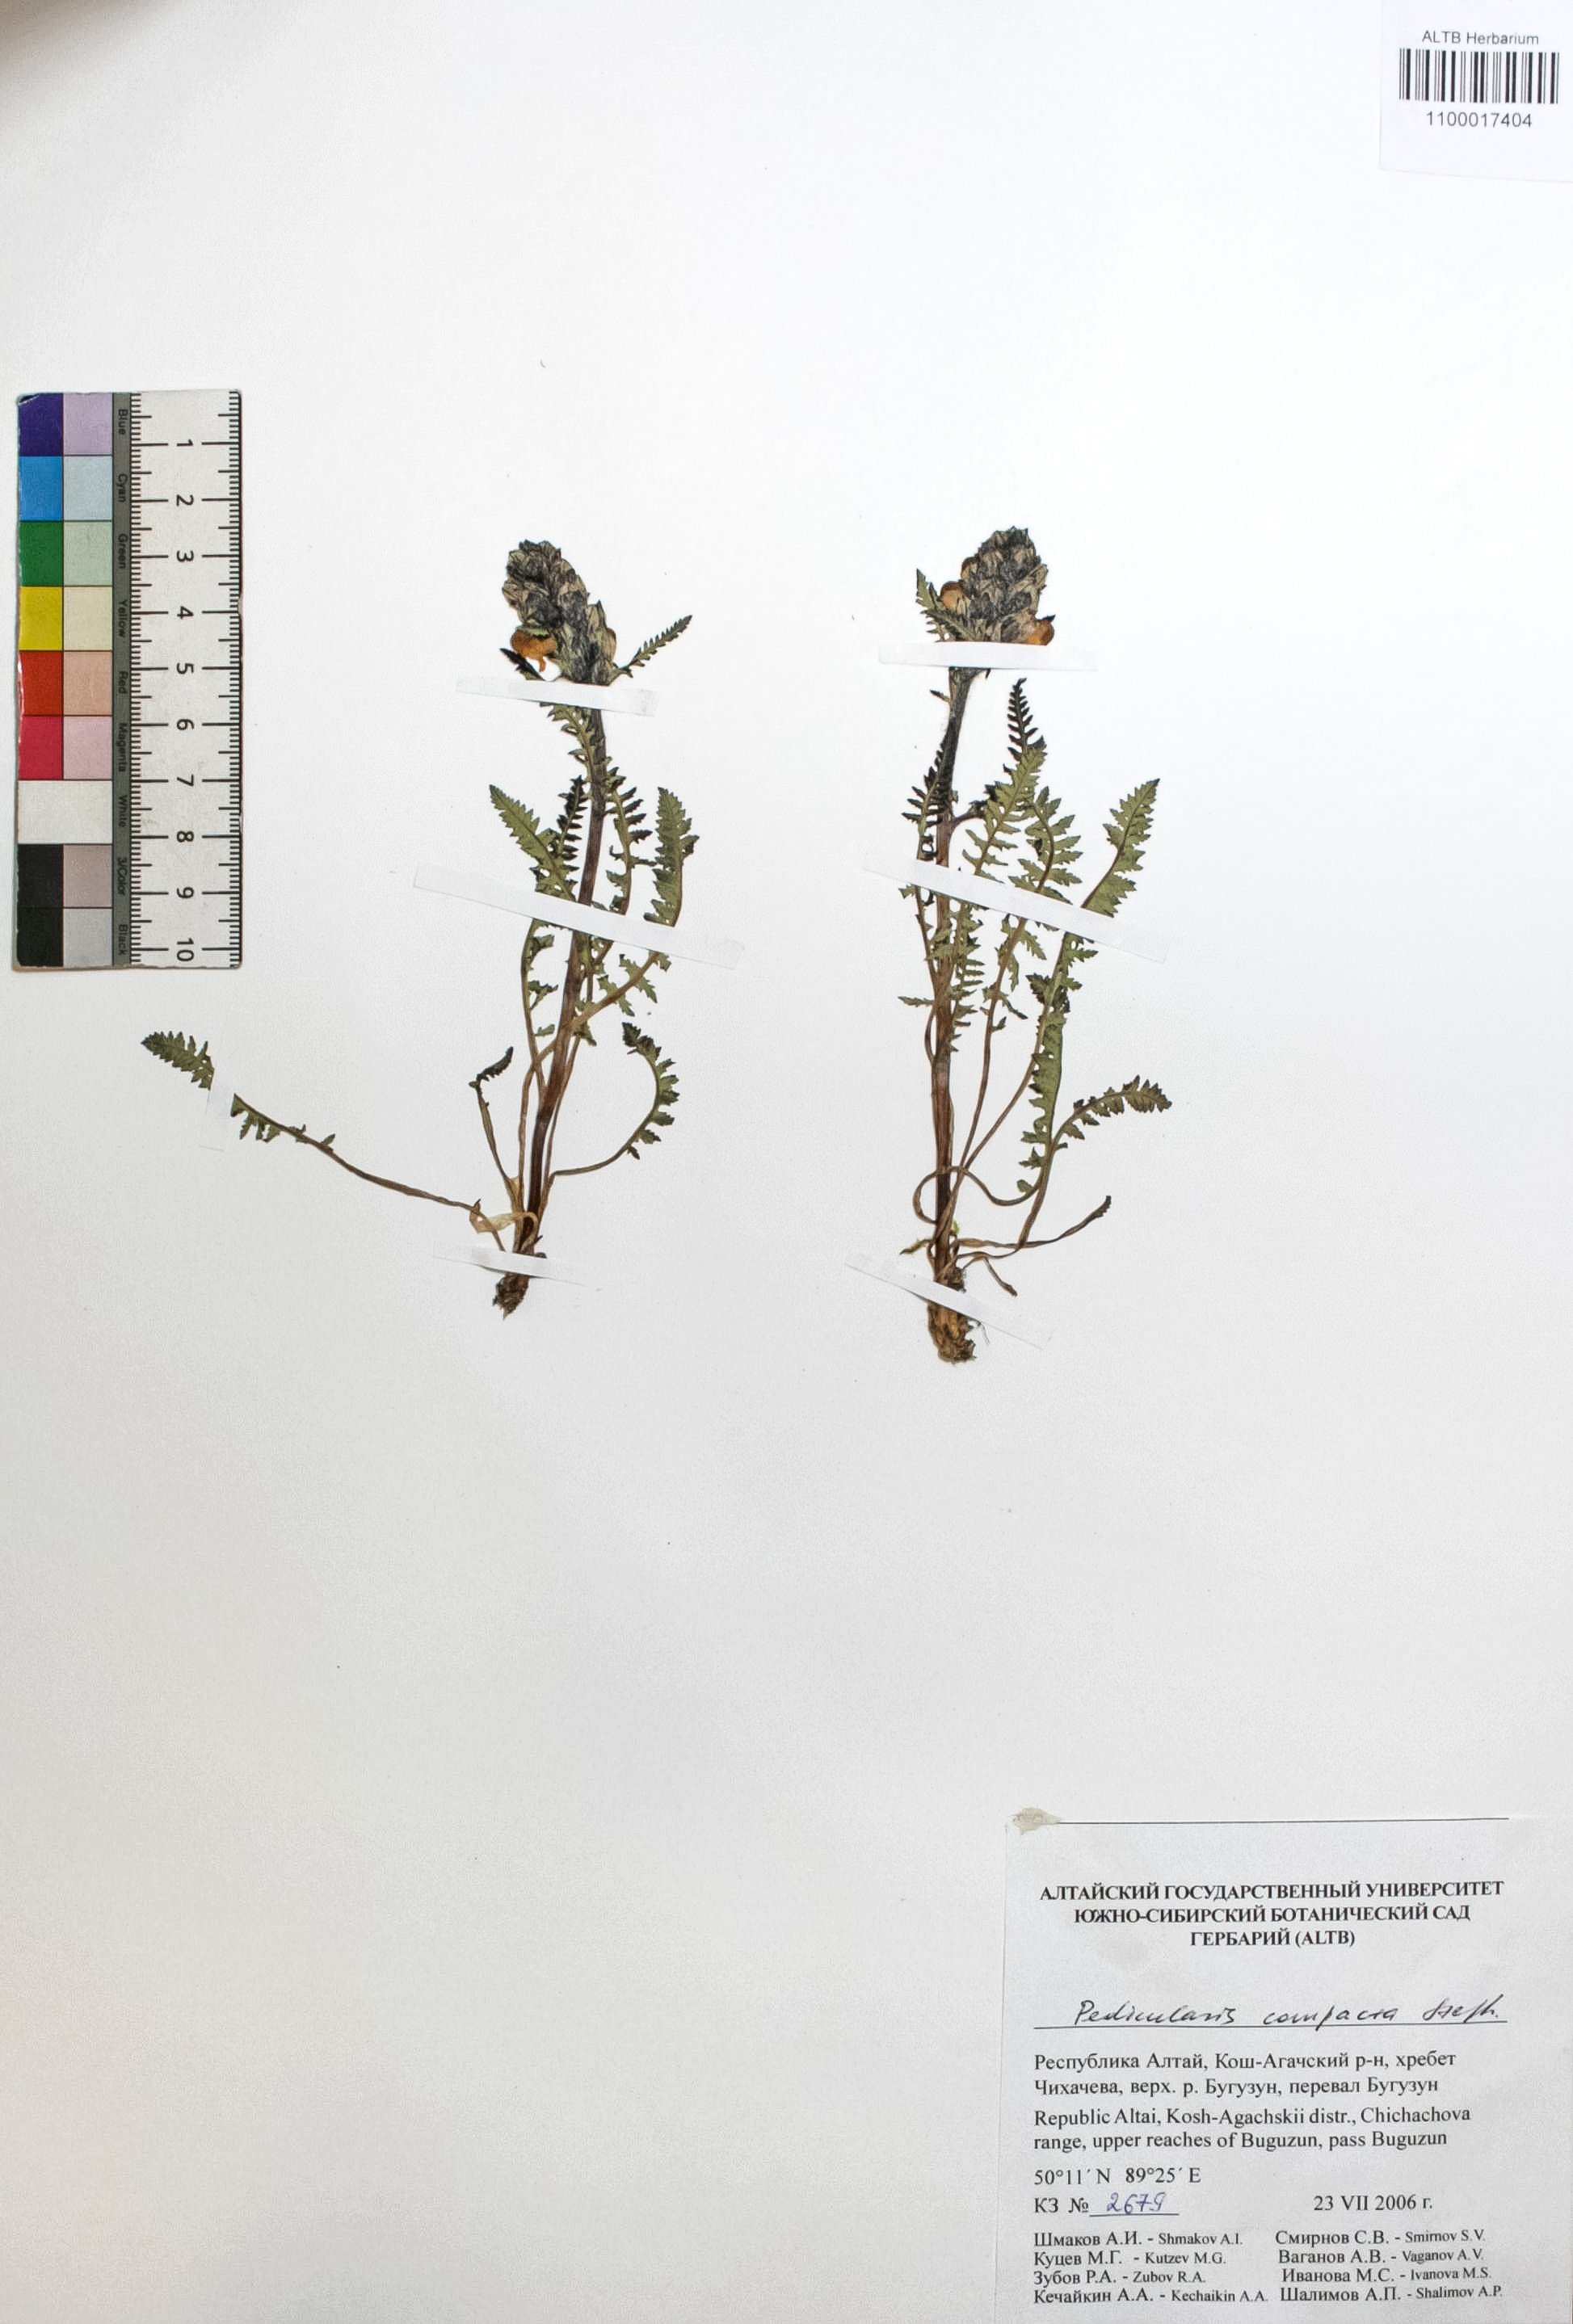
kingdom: Plantae
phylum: Tracheophyta
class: Magnoliopsida
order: Lamiales
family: Orobanchaceae
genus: Pedicularis
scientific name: Pedicularis compacta
